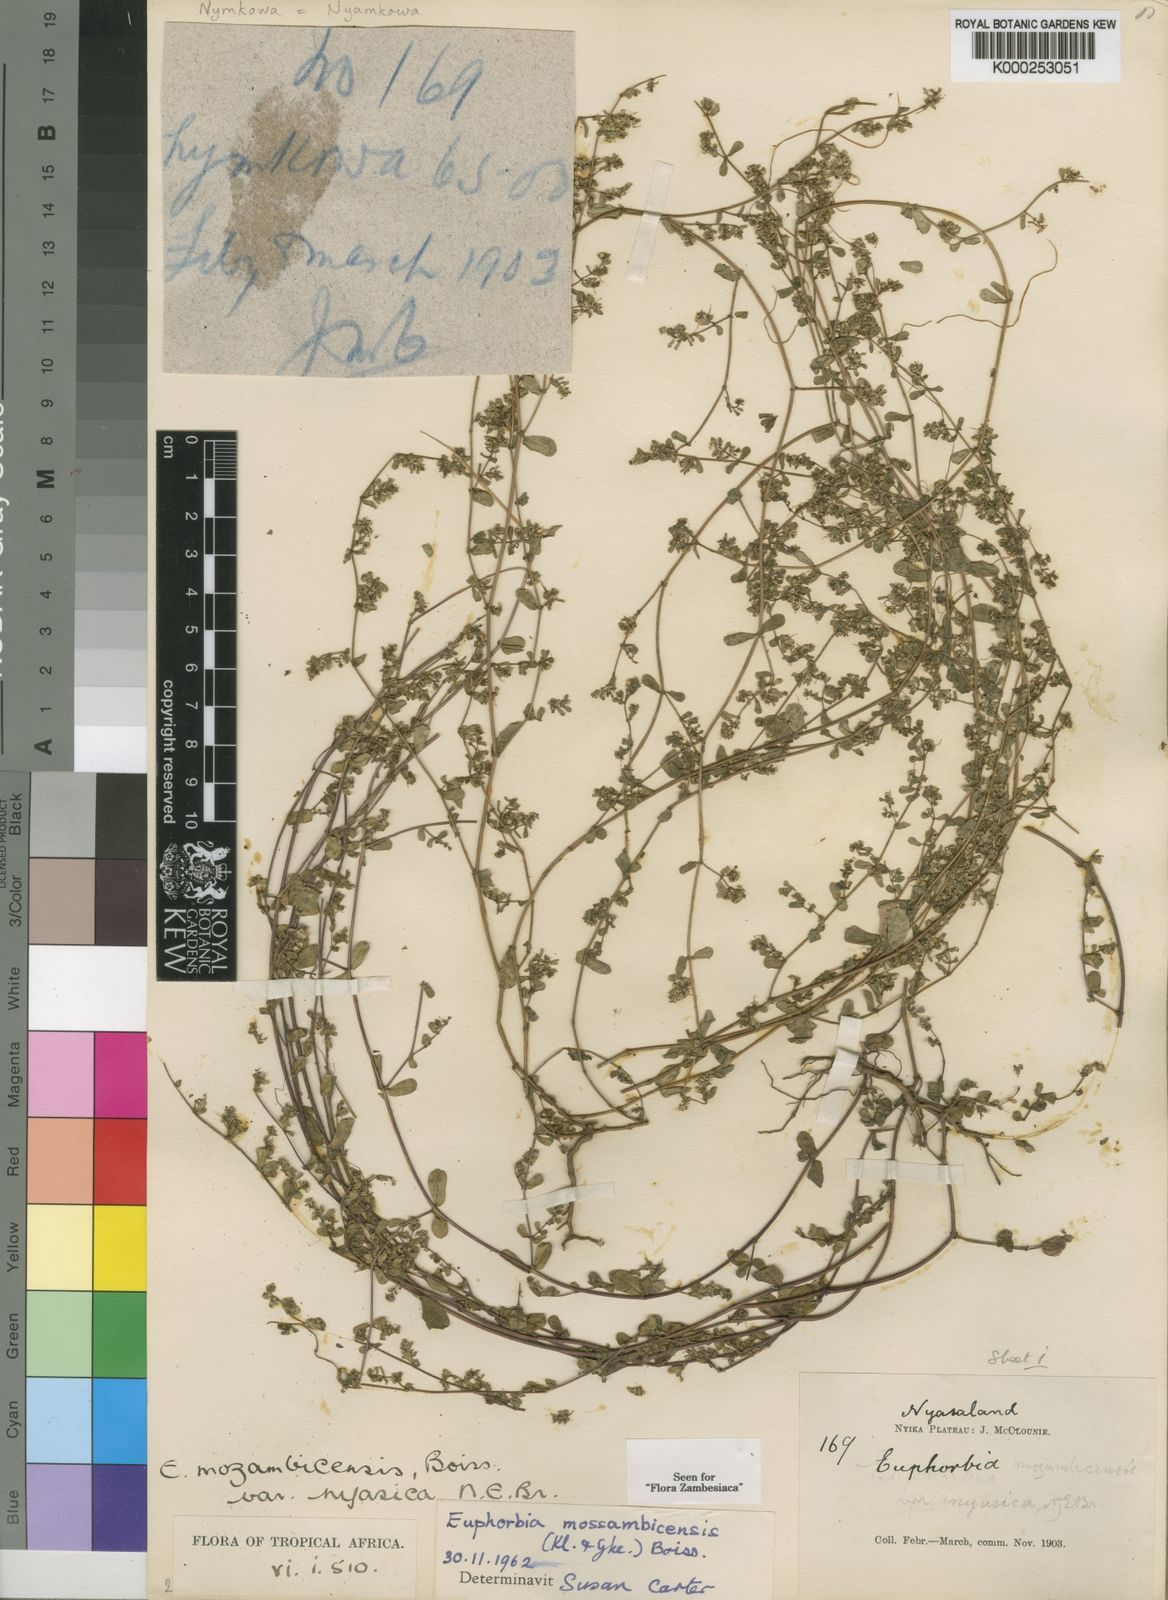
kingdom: Plantae
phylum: Tracheophyta
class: Magnoliopsida
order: Malpighiales
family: Euphorbiaceae
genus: Euphorbia
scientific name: Euphorbia mossambicensis
